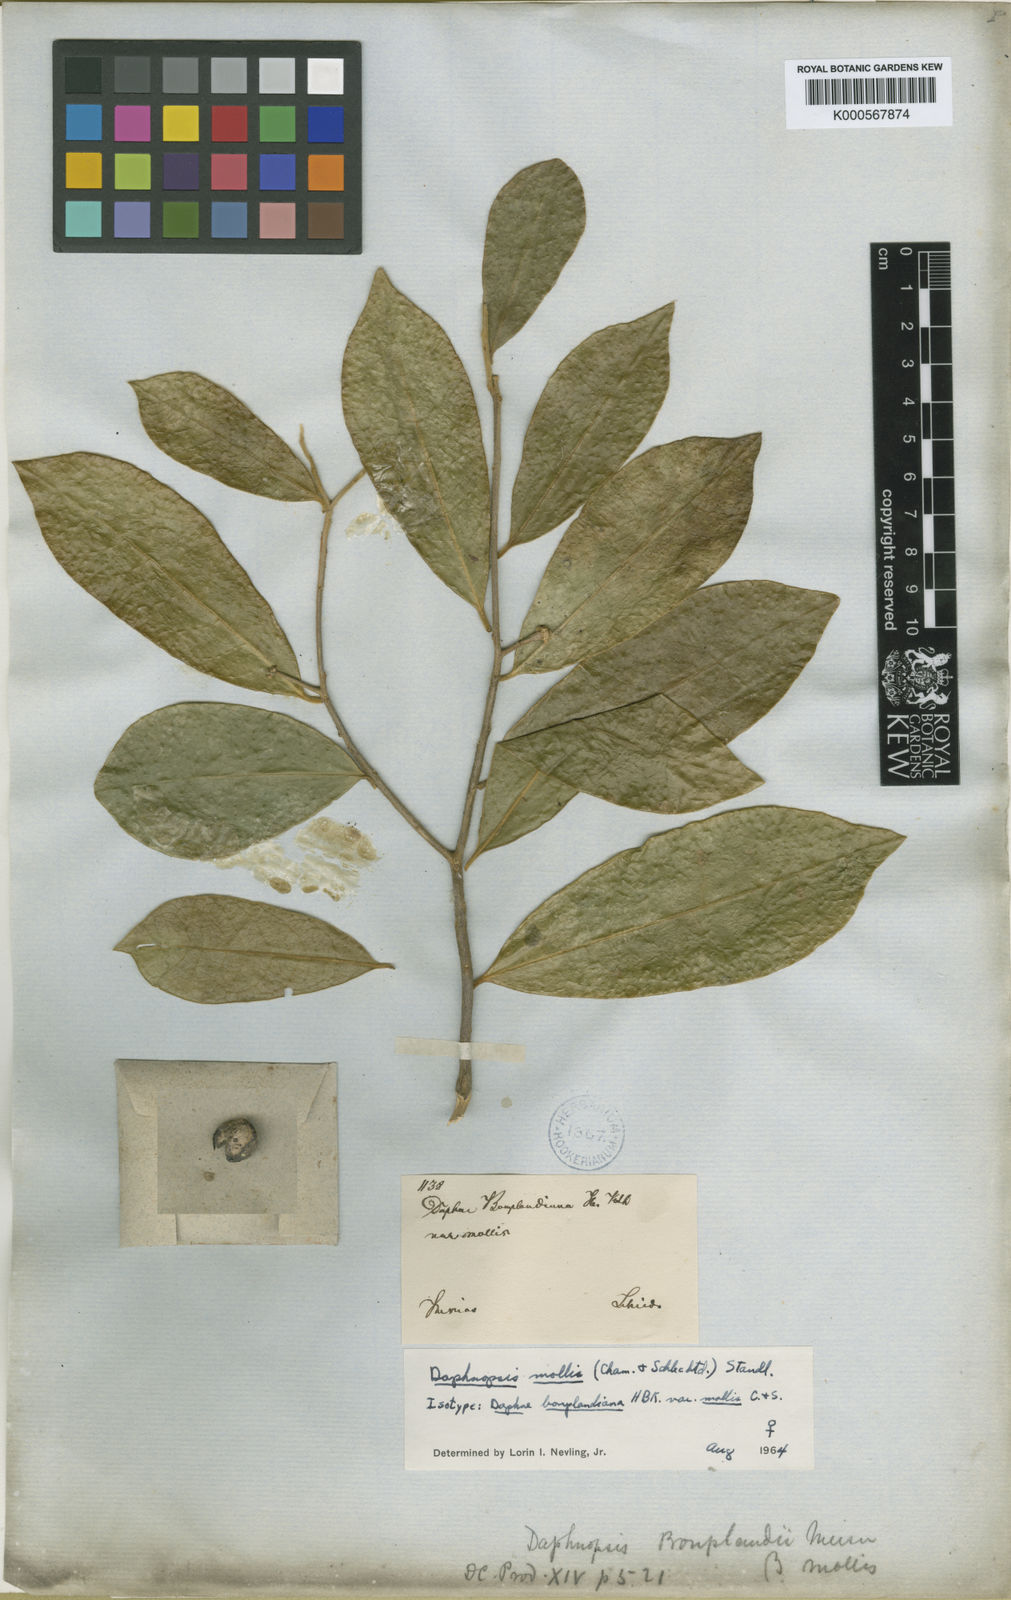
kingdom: Plantae
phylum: Tracheophyta
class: Magnoliopsida
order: Malvales
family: Thymelaeaceae
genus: Daphnopsis
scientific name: Daphnopsis mollis
